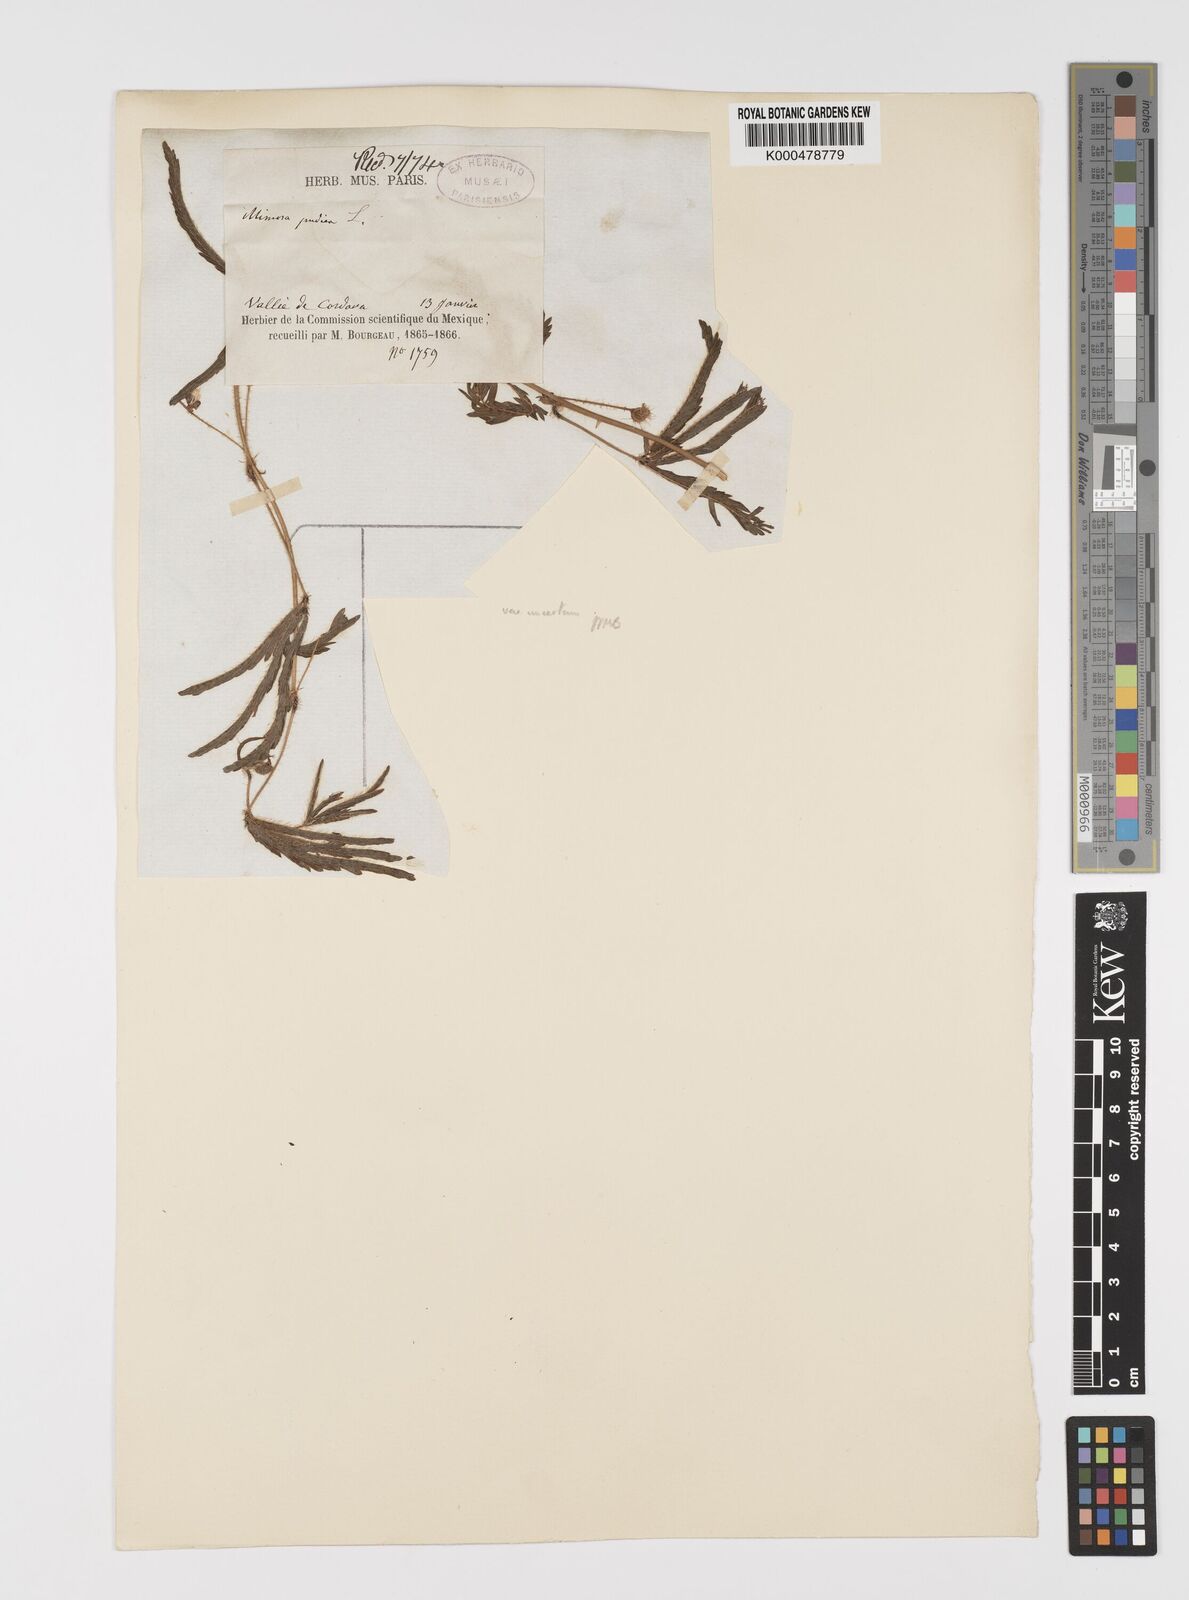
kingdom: Plantae
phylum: Tracheophyta
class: Magnoliopsida
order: Fabales
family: Fabaceae
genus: Mimosa
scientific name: Mimosa pudica
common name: Sensitive plant
